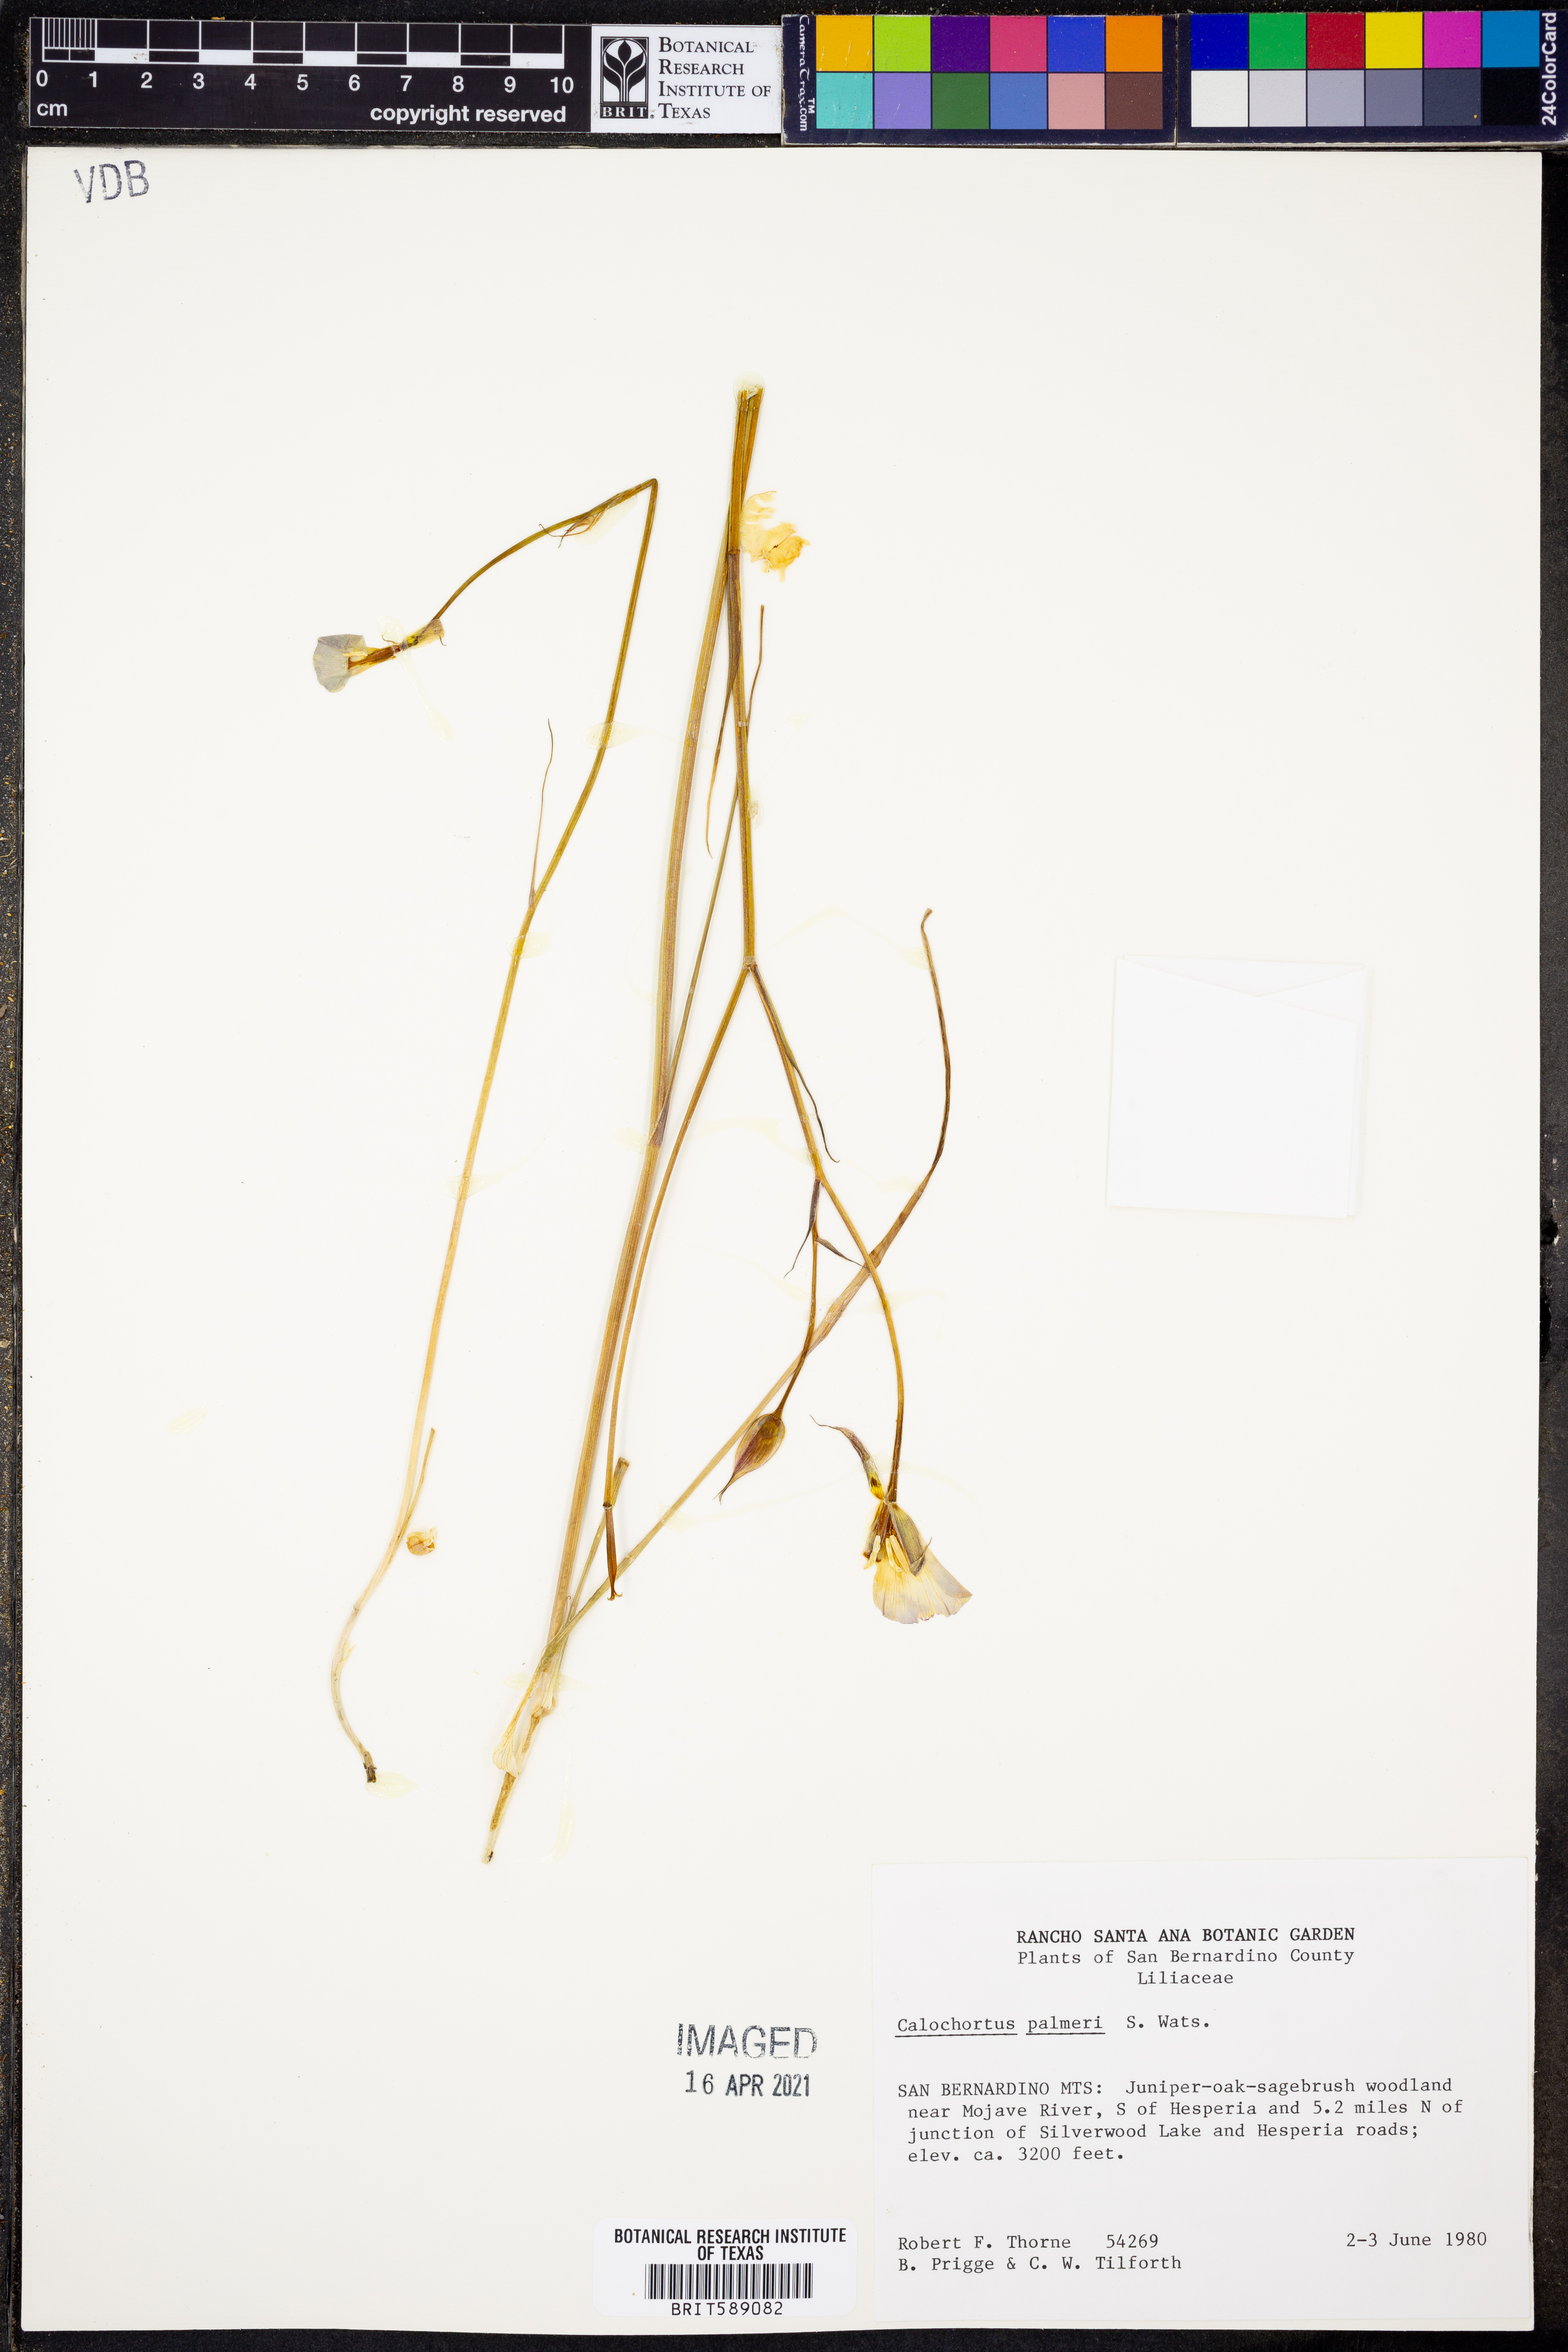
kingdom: Plantae
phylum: Tracheophyta
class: Liliopsida
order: Liliales
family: Liliaceae
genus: Calochortus
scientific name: Calochortus palmeri
